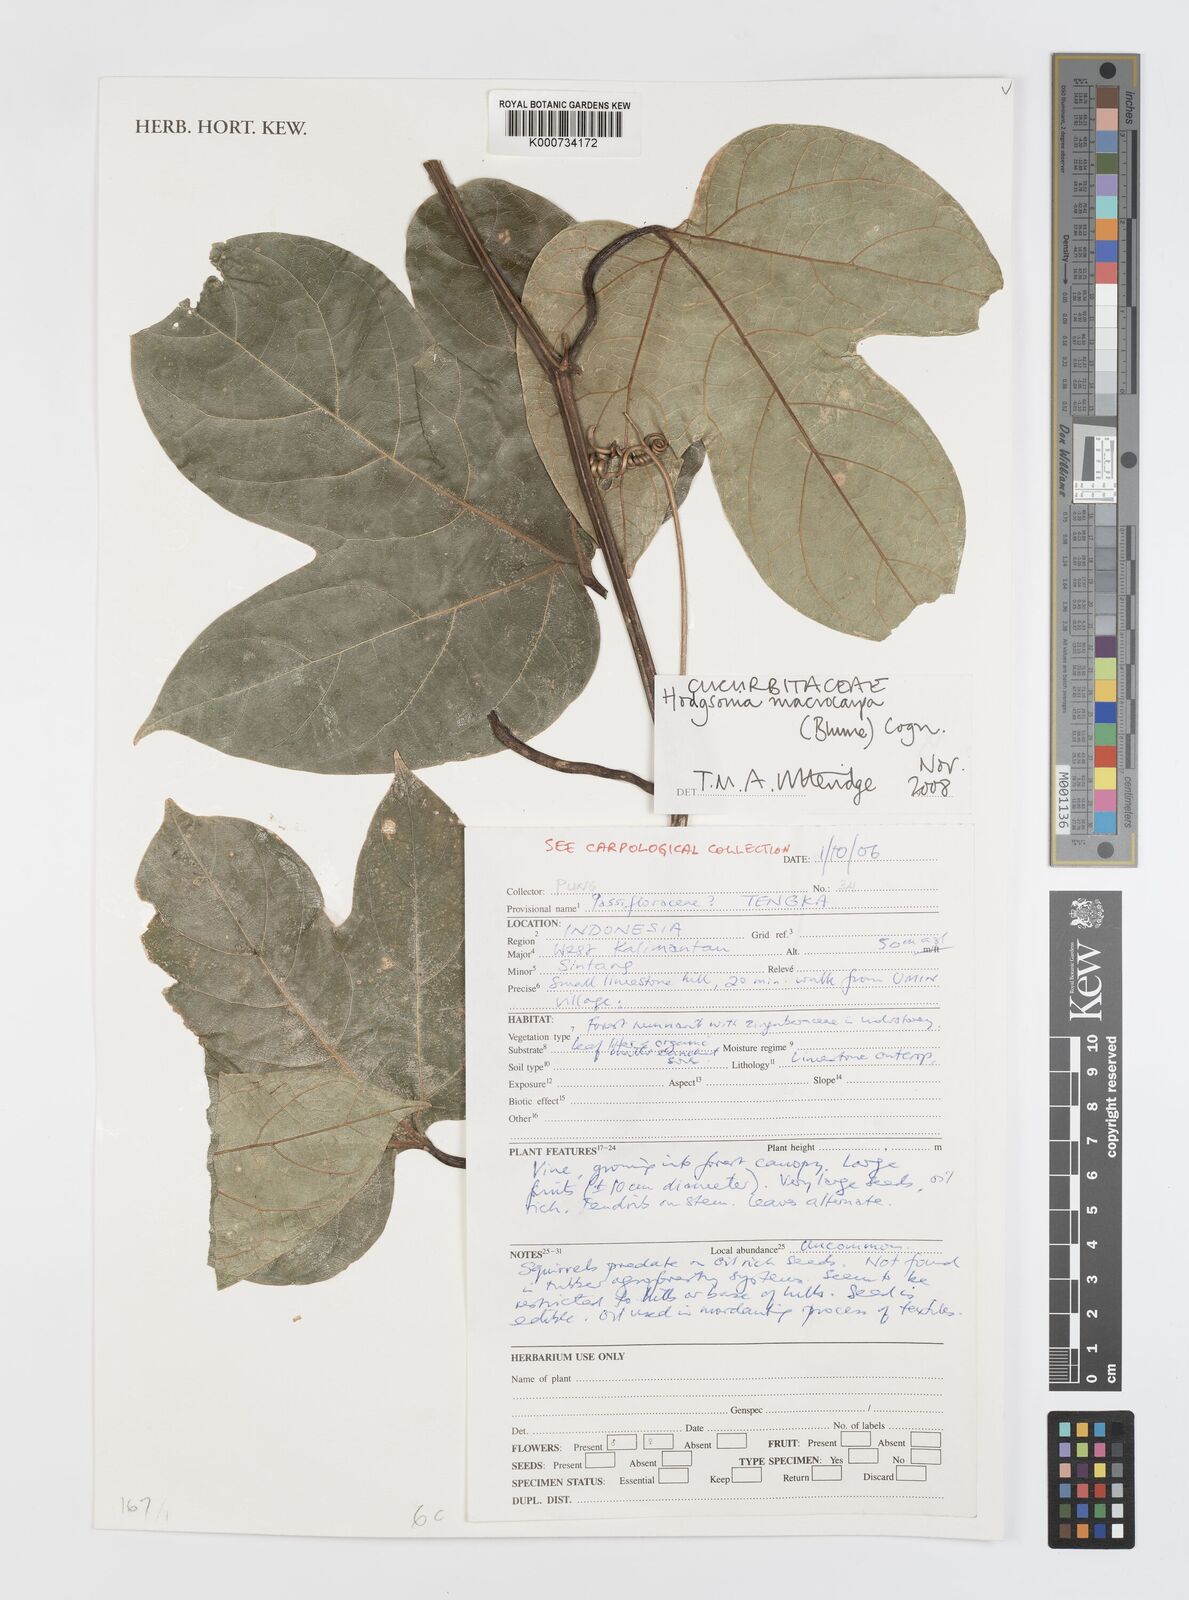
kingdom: Plantae
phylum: Tracheophyta
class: Magnoliopsida
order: Cucurbitales
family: Cucurbitaceae
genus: Hodgsonia
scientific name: Hodgsonia macrocarpa
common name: Chinese lardfruit
